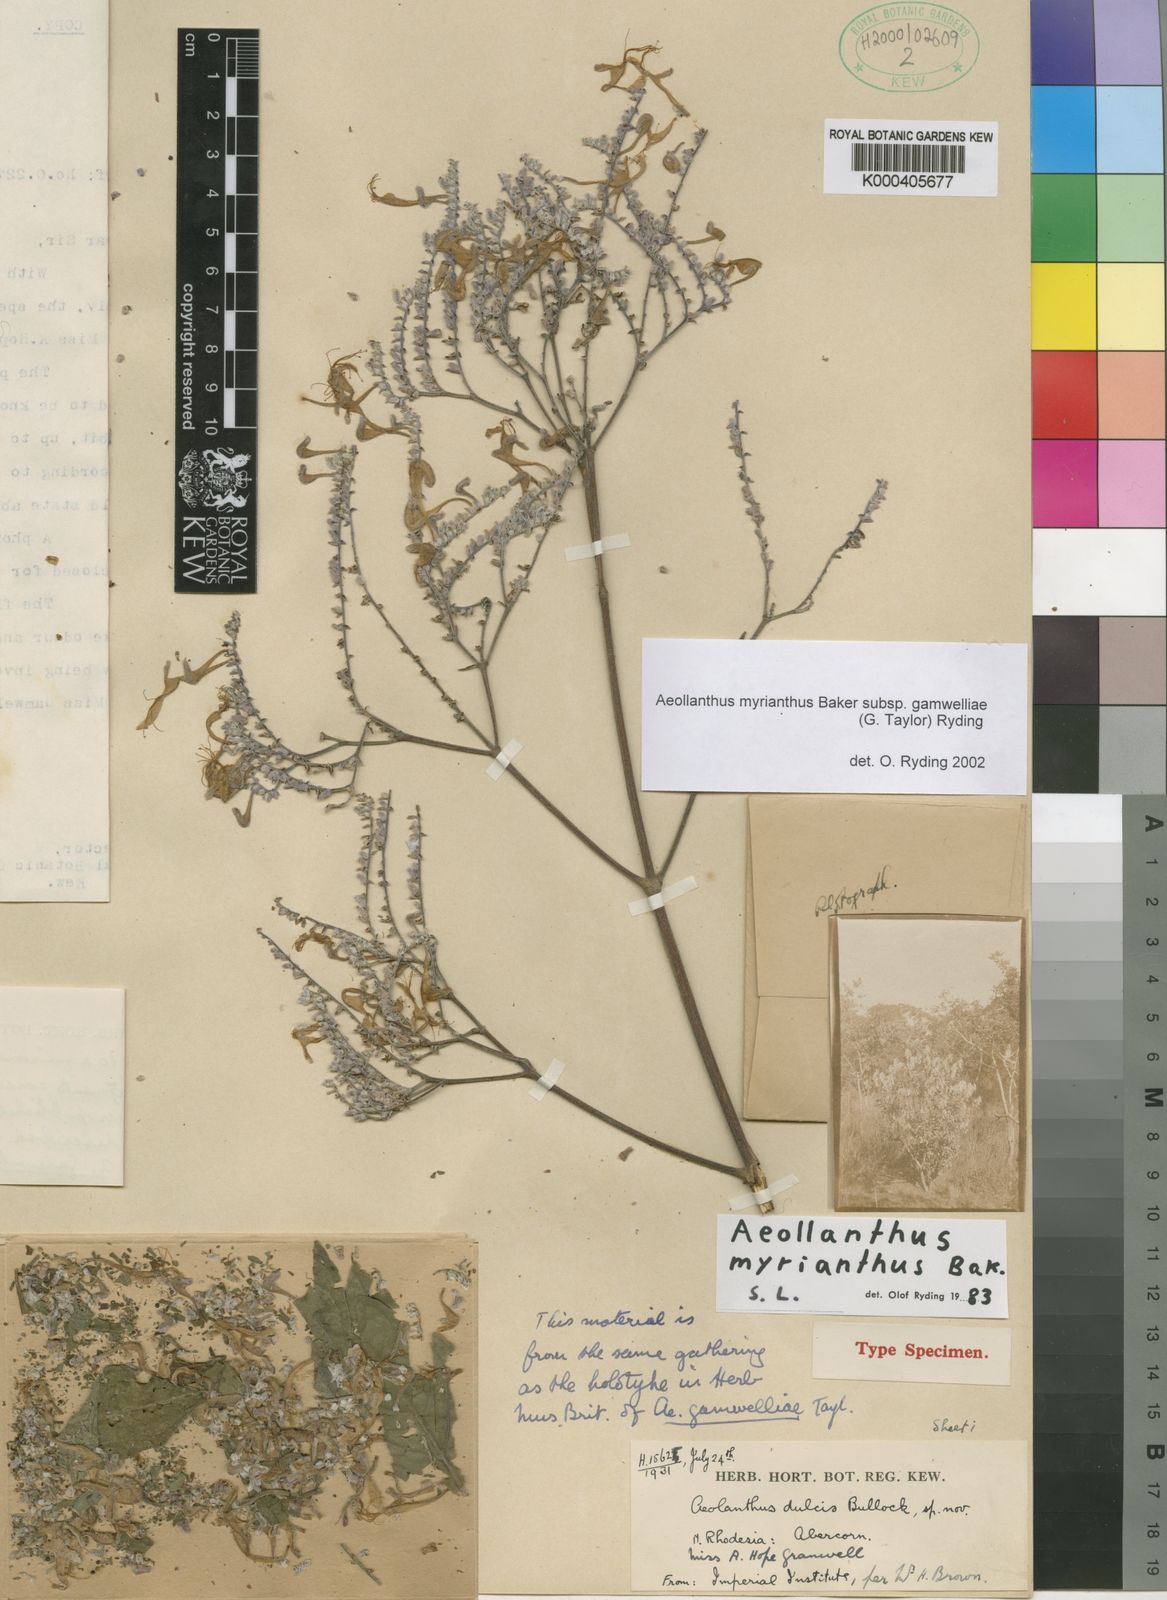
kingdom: Plantae
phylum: Tracheophyta
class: Magnoliopsida
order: Lamiales
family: Lamiaceae
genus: Aeollanthus
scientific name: Aeollanthus myrianthus
